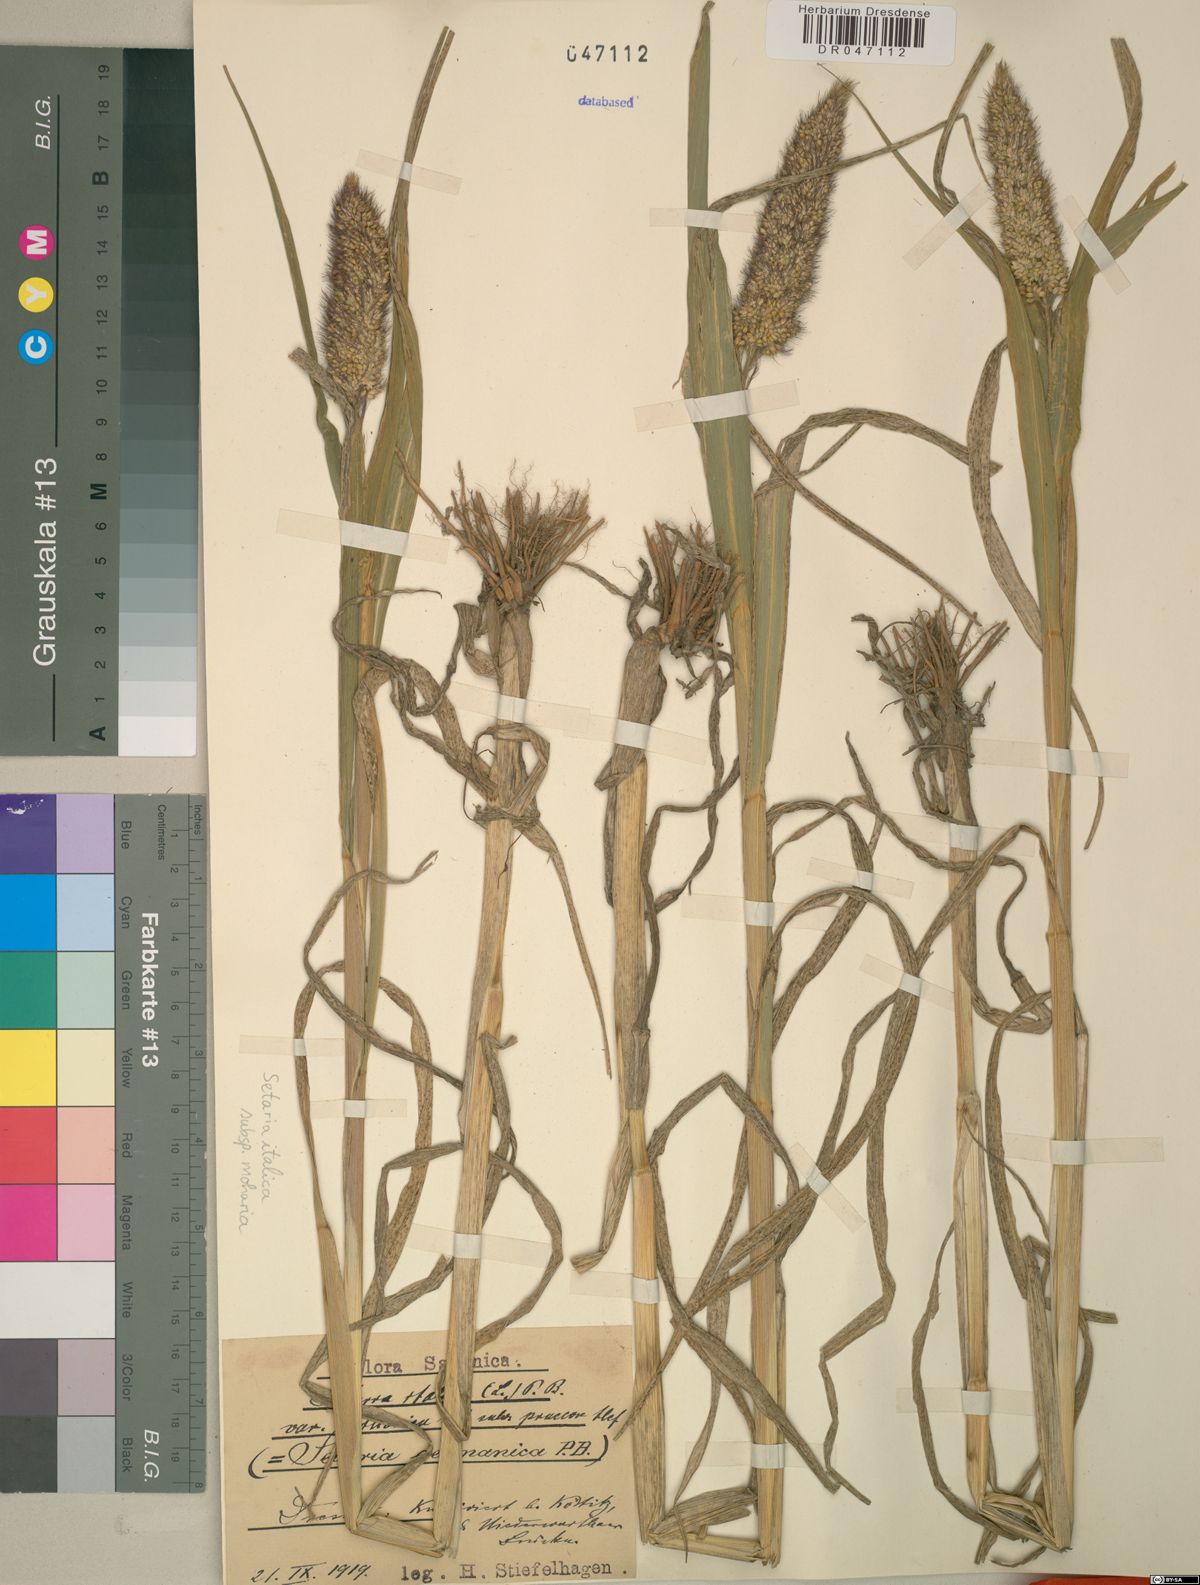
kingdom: Plantae
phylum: Tracheophyta
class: Liliopsida
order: Poales
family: Poaceae
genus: Setaria
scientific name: Setaria italica
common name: Foxtail bristle-grass
